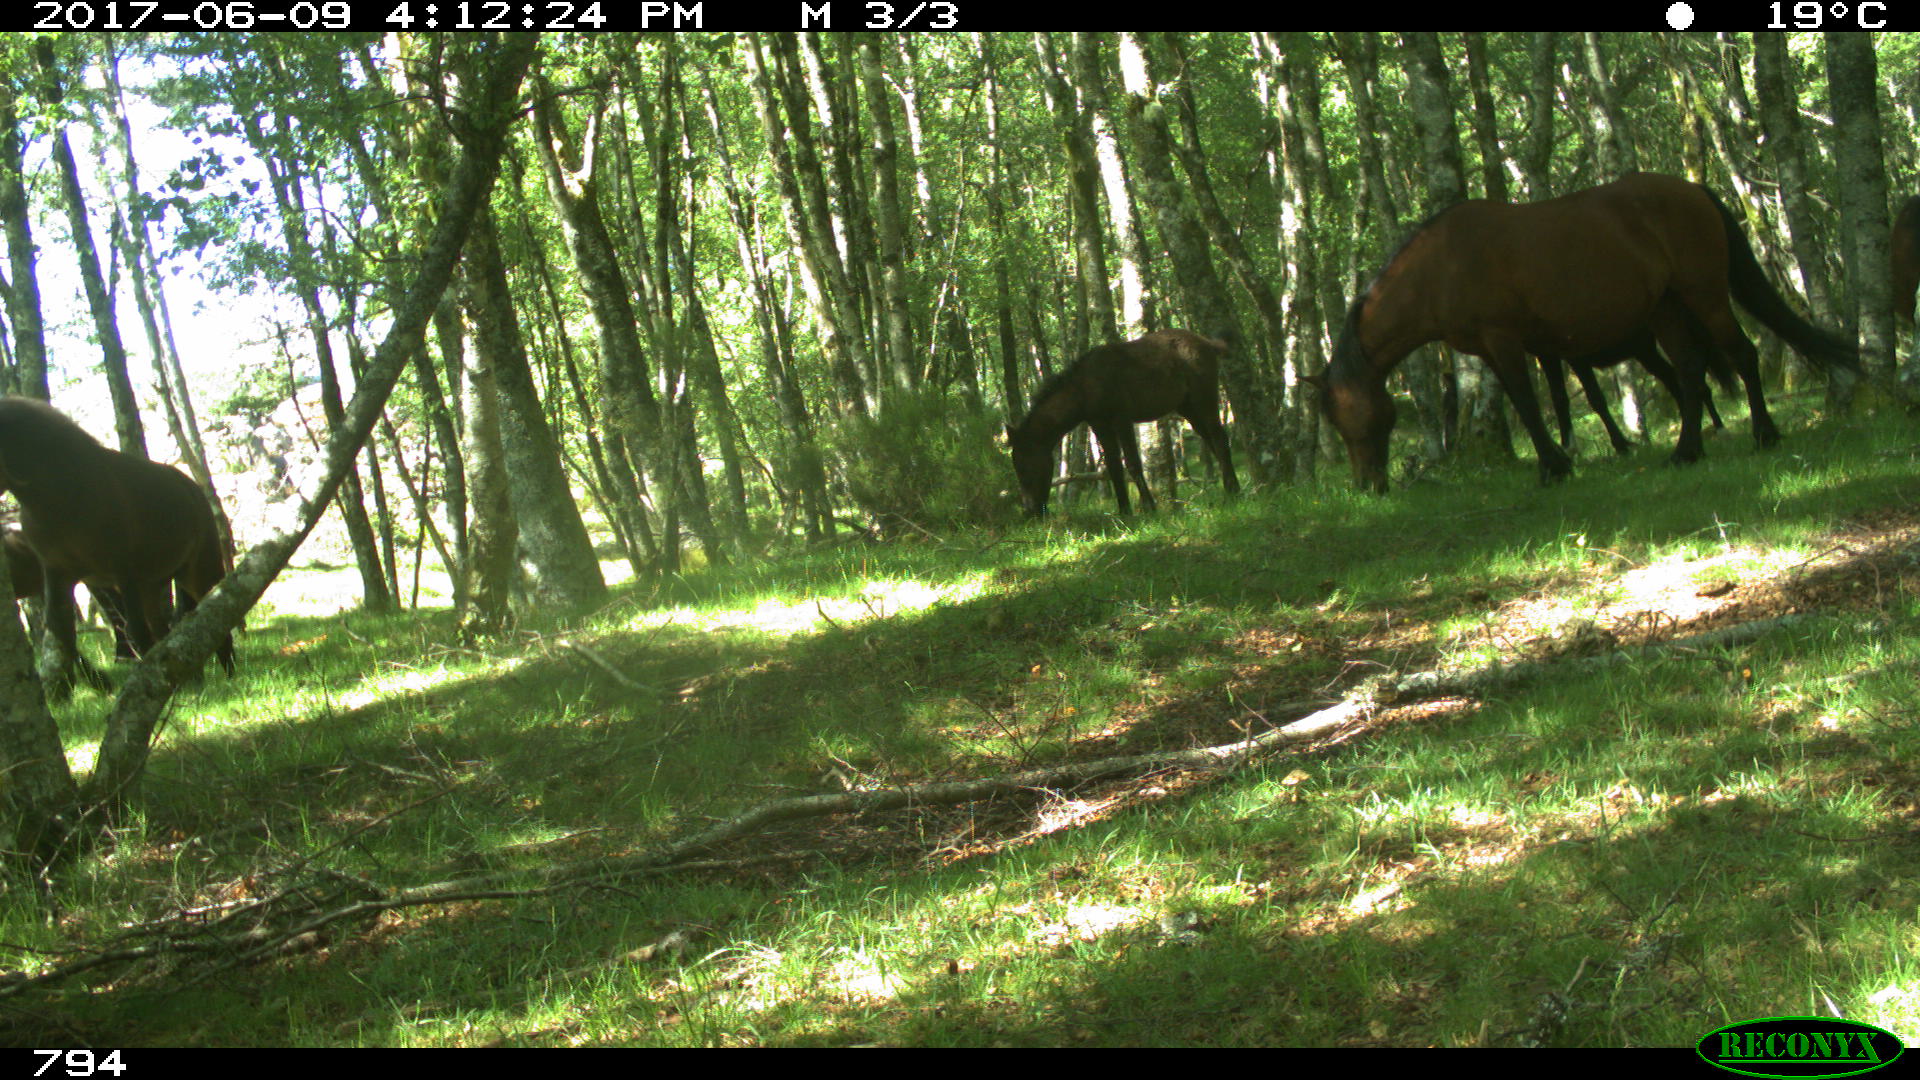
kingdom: Animalia
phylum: Chordata
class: Mammalia
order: Perissodactyla
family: Equidae
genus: Equus
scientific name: Equus caballus
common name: Horse
